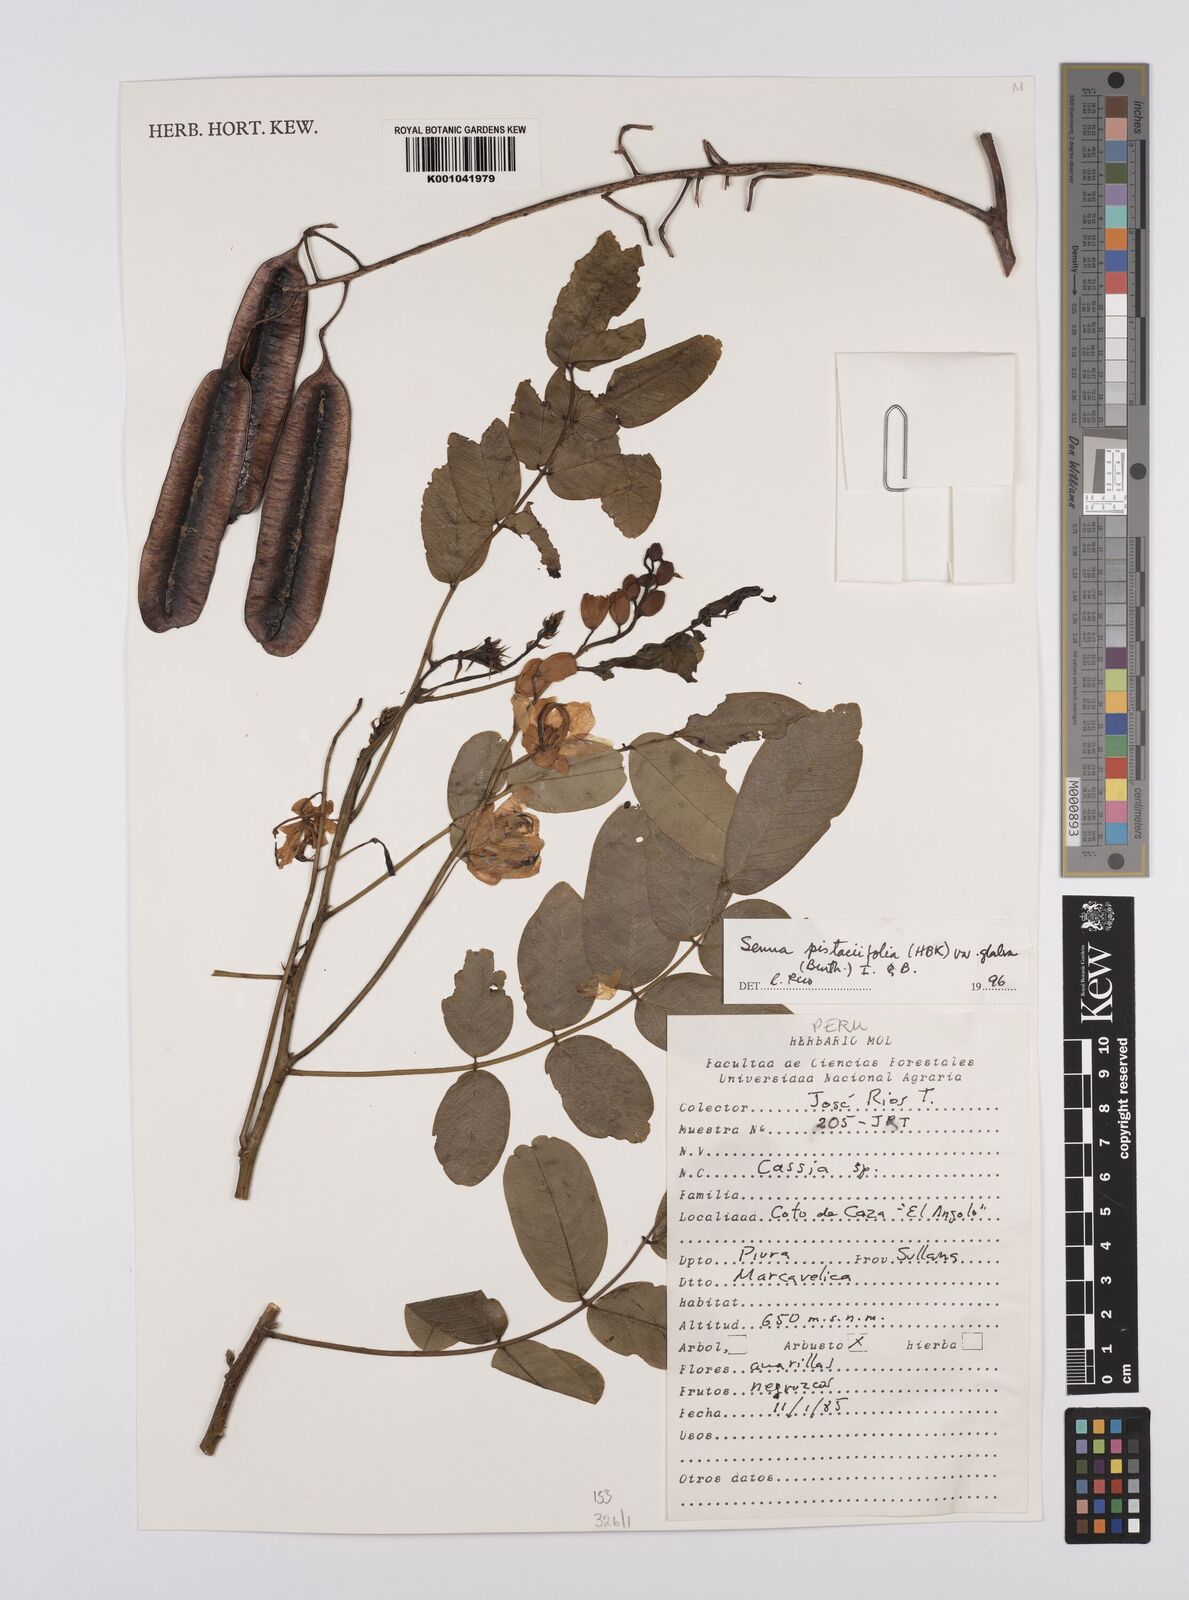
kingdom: Plantae
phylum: Tracheophyta
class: Magnoliopsida
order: Fabales
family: Fabaceae
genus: Senna
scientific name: Senna pistaciifolia
